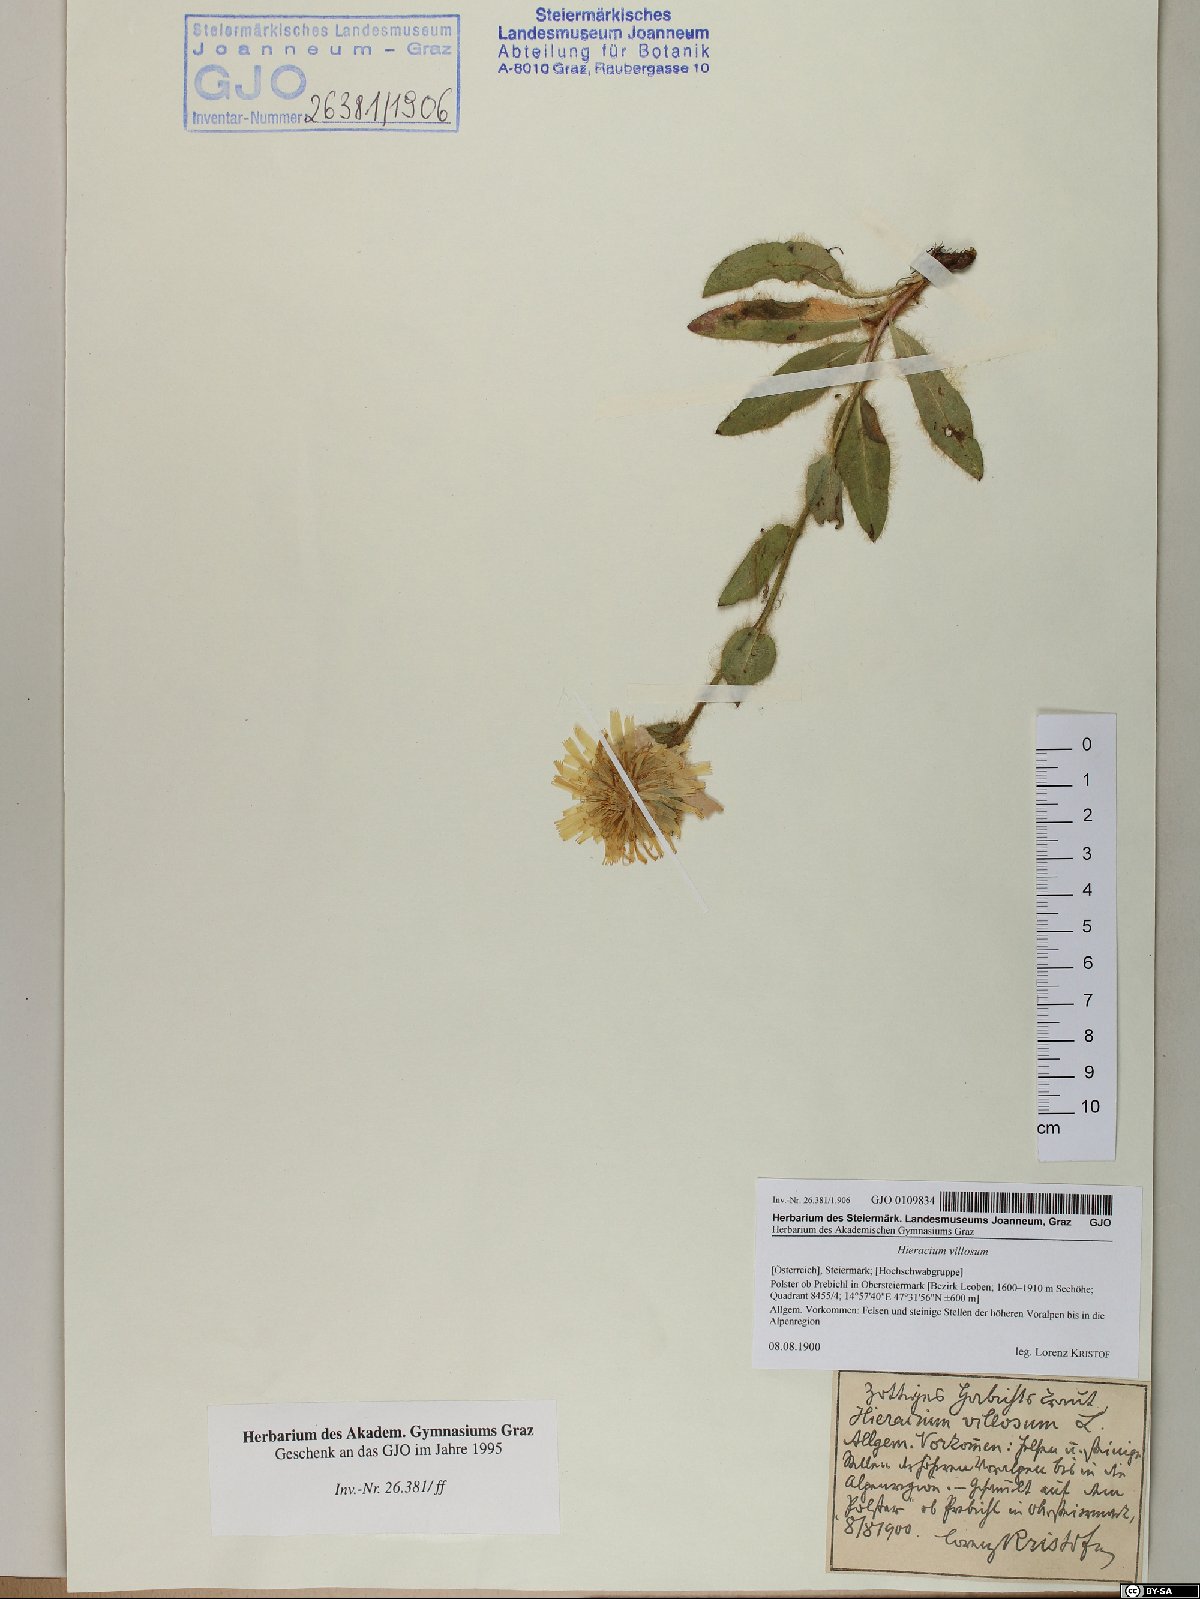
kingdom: Plantae
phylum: Tracheophyta
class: Magnoliopsida
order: Asterales
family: Asteraceae
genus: Hieracium
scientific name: Hieracium villosum
